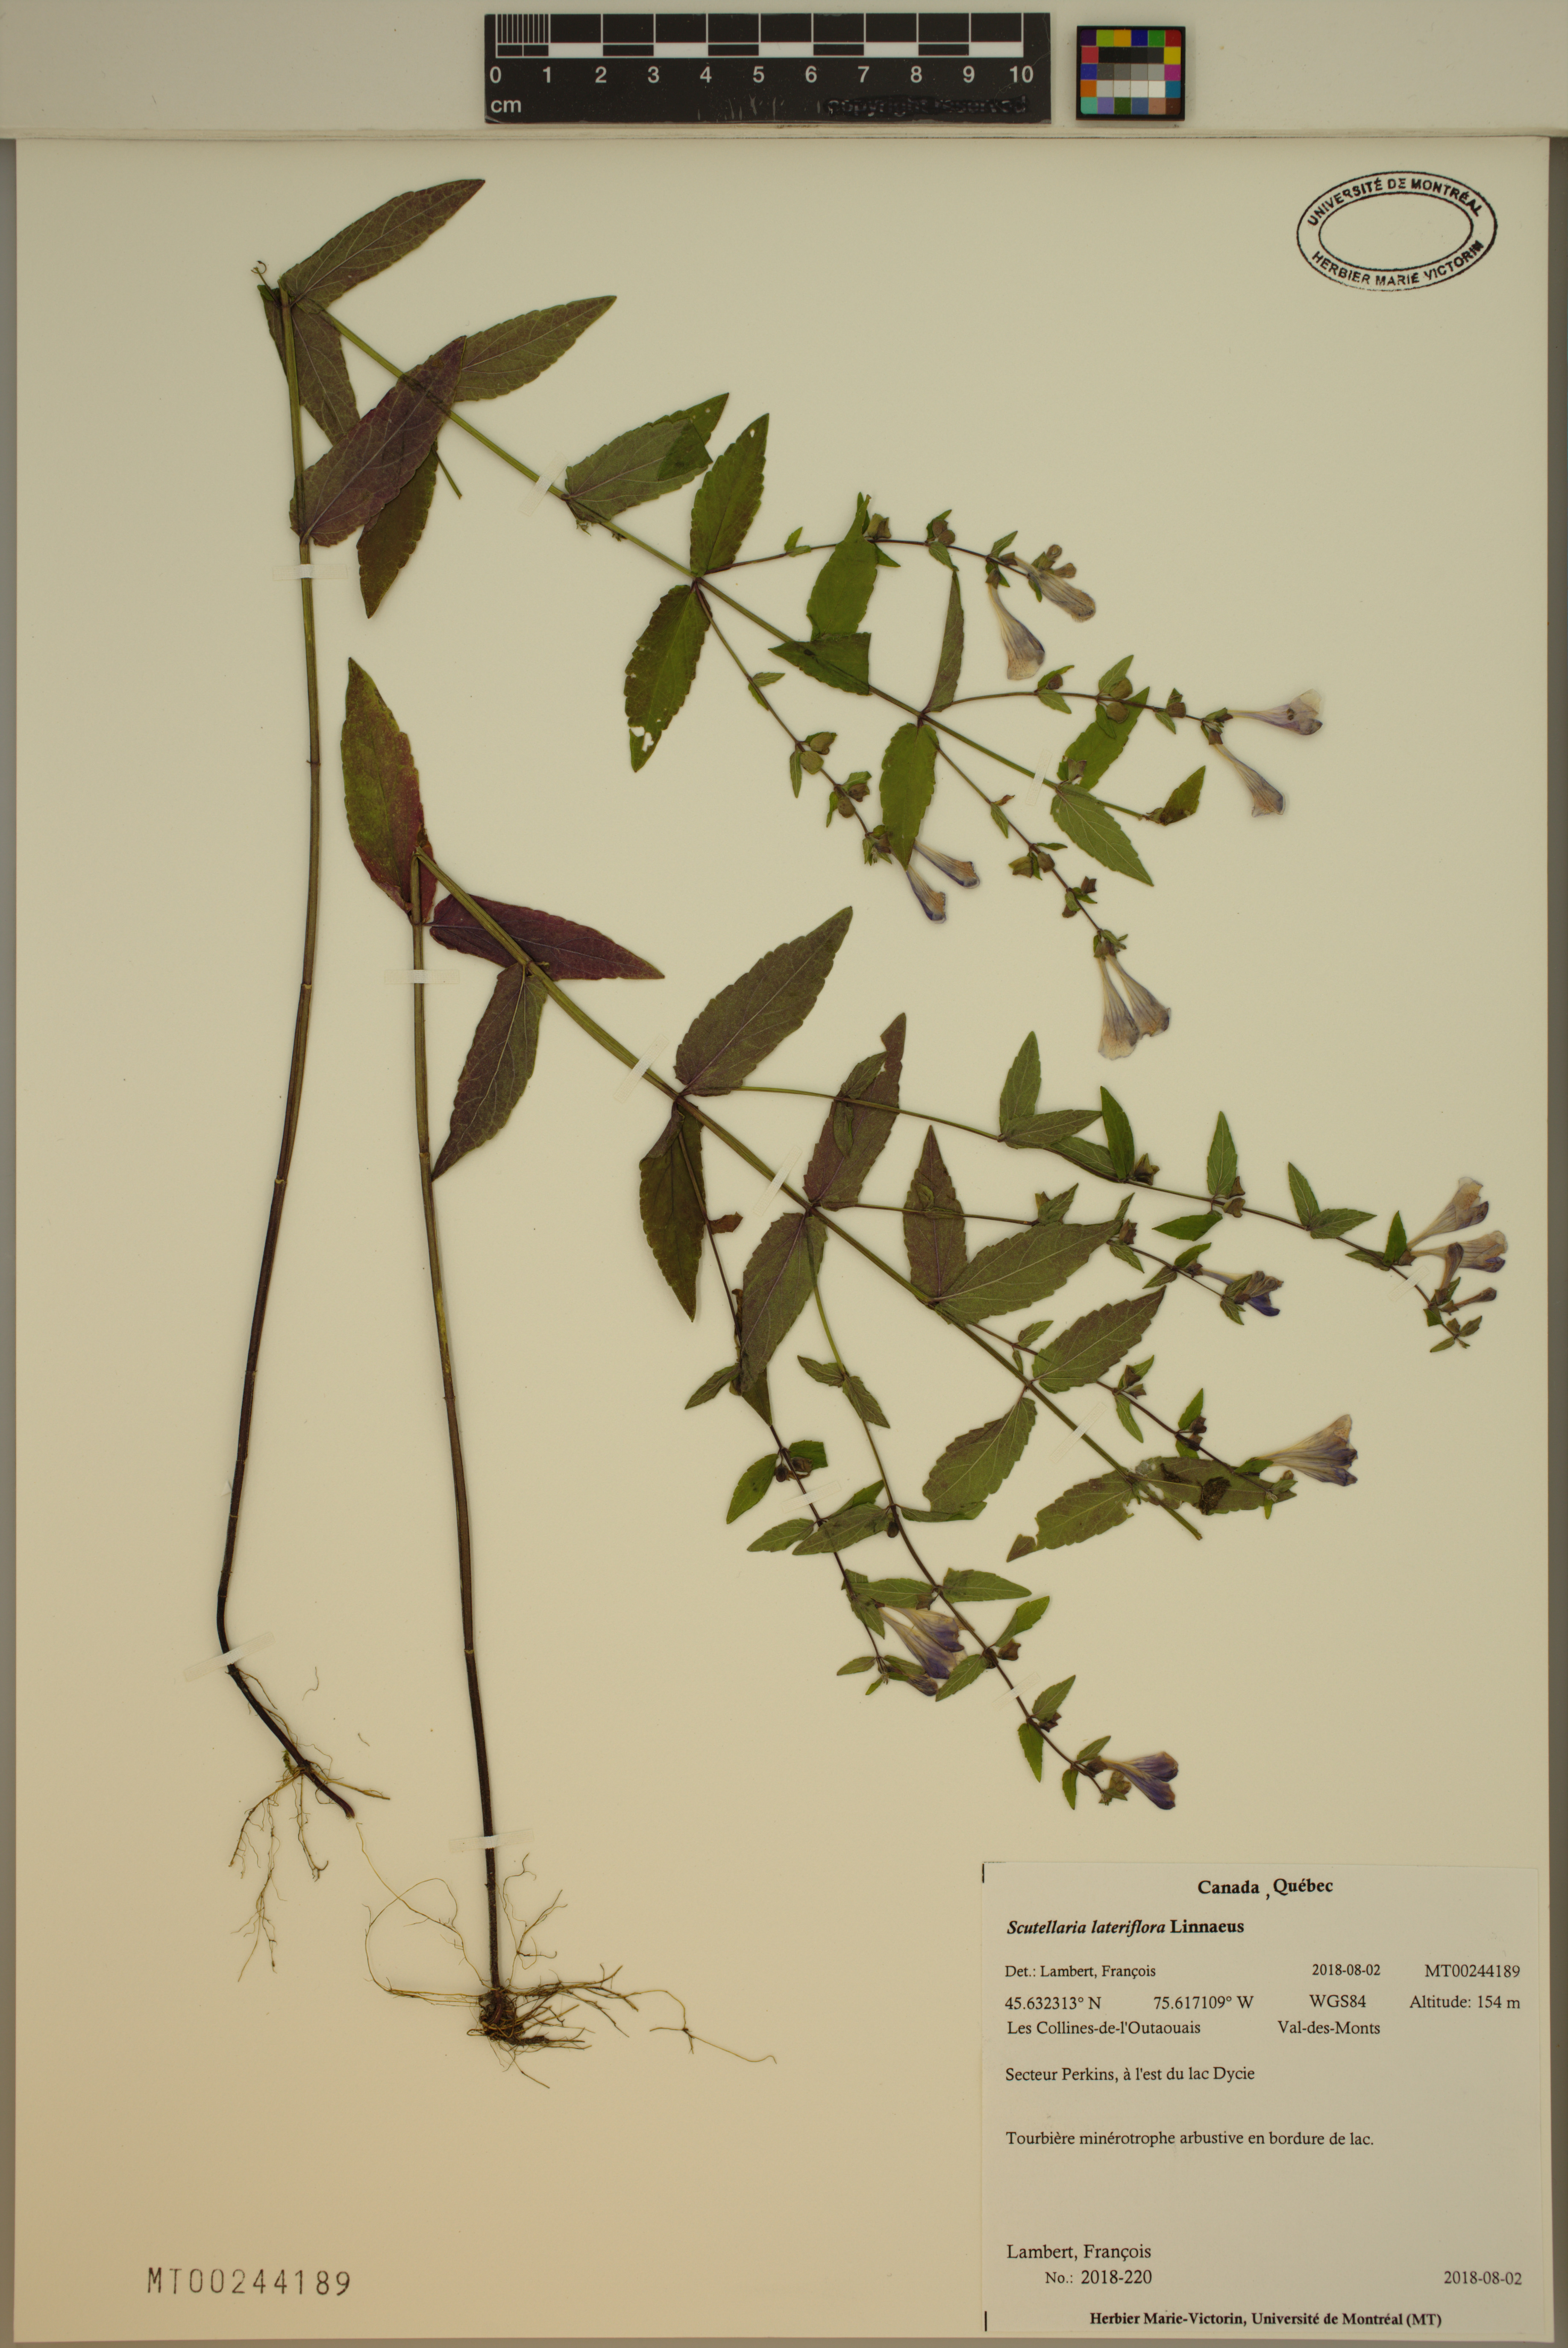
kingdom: Plantae
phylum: Tracheophyta
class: Magnoliopsida
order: Lamiales
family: Lamiaceae
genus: Scutellaria
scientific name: Scutellaria lateriflora
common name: Blue skullcap
